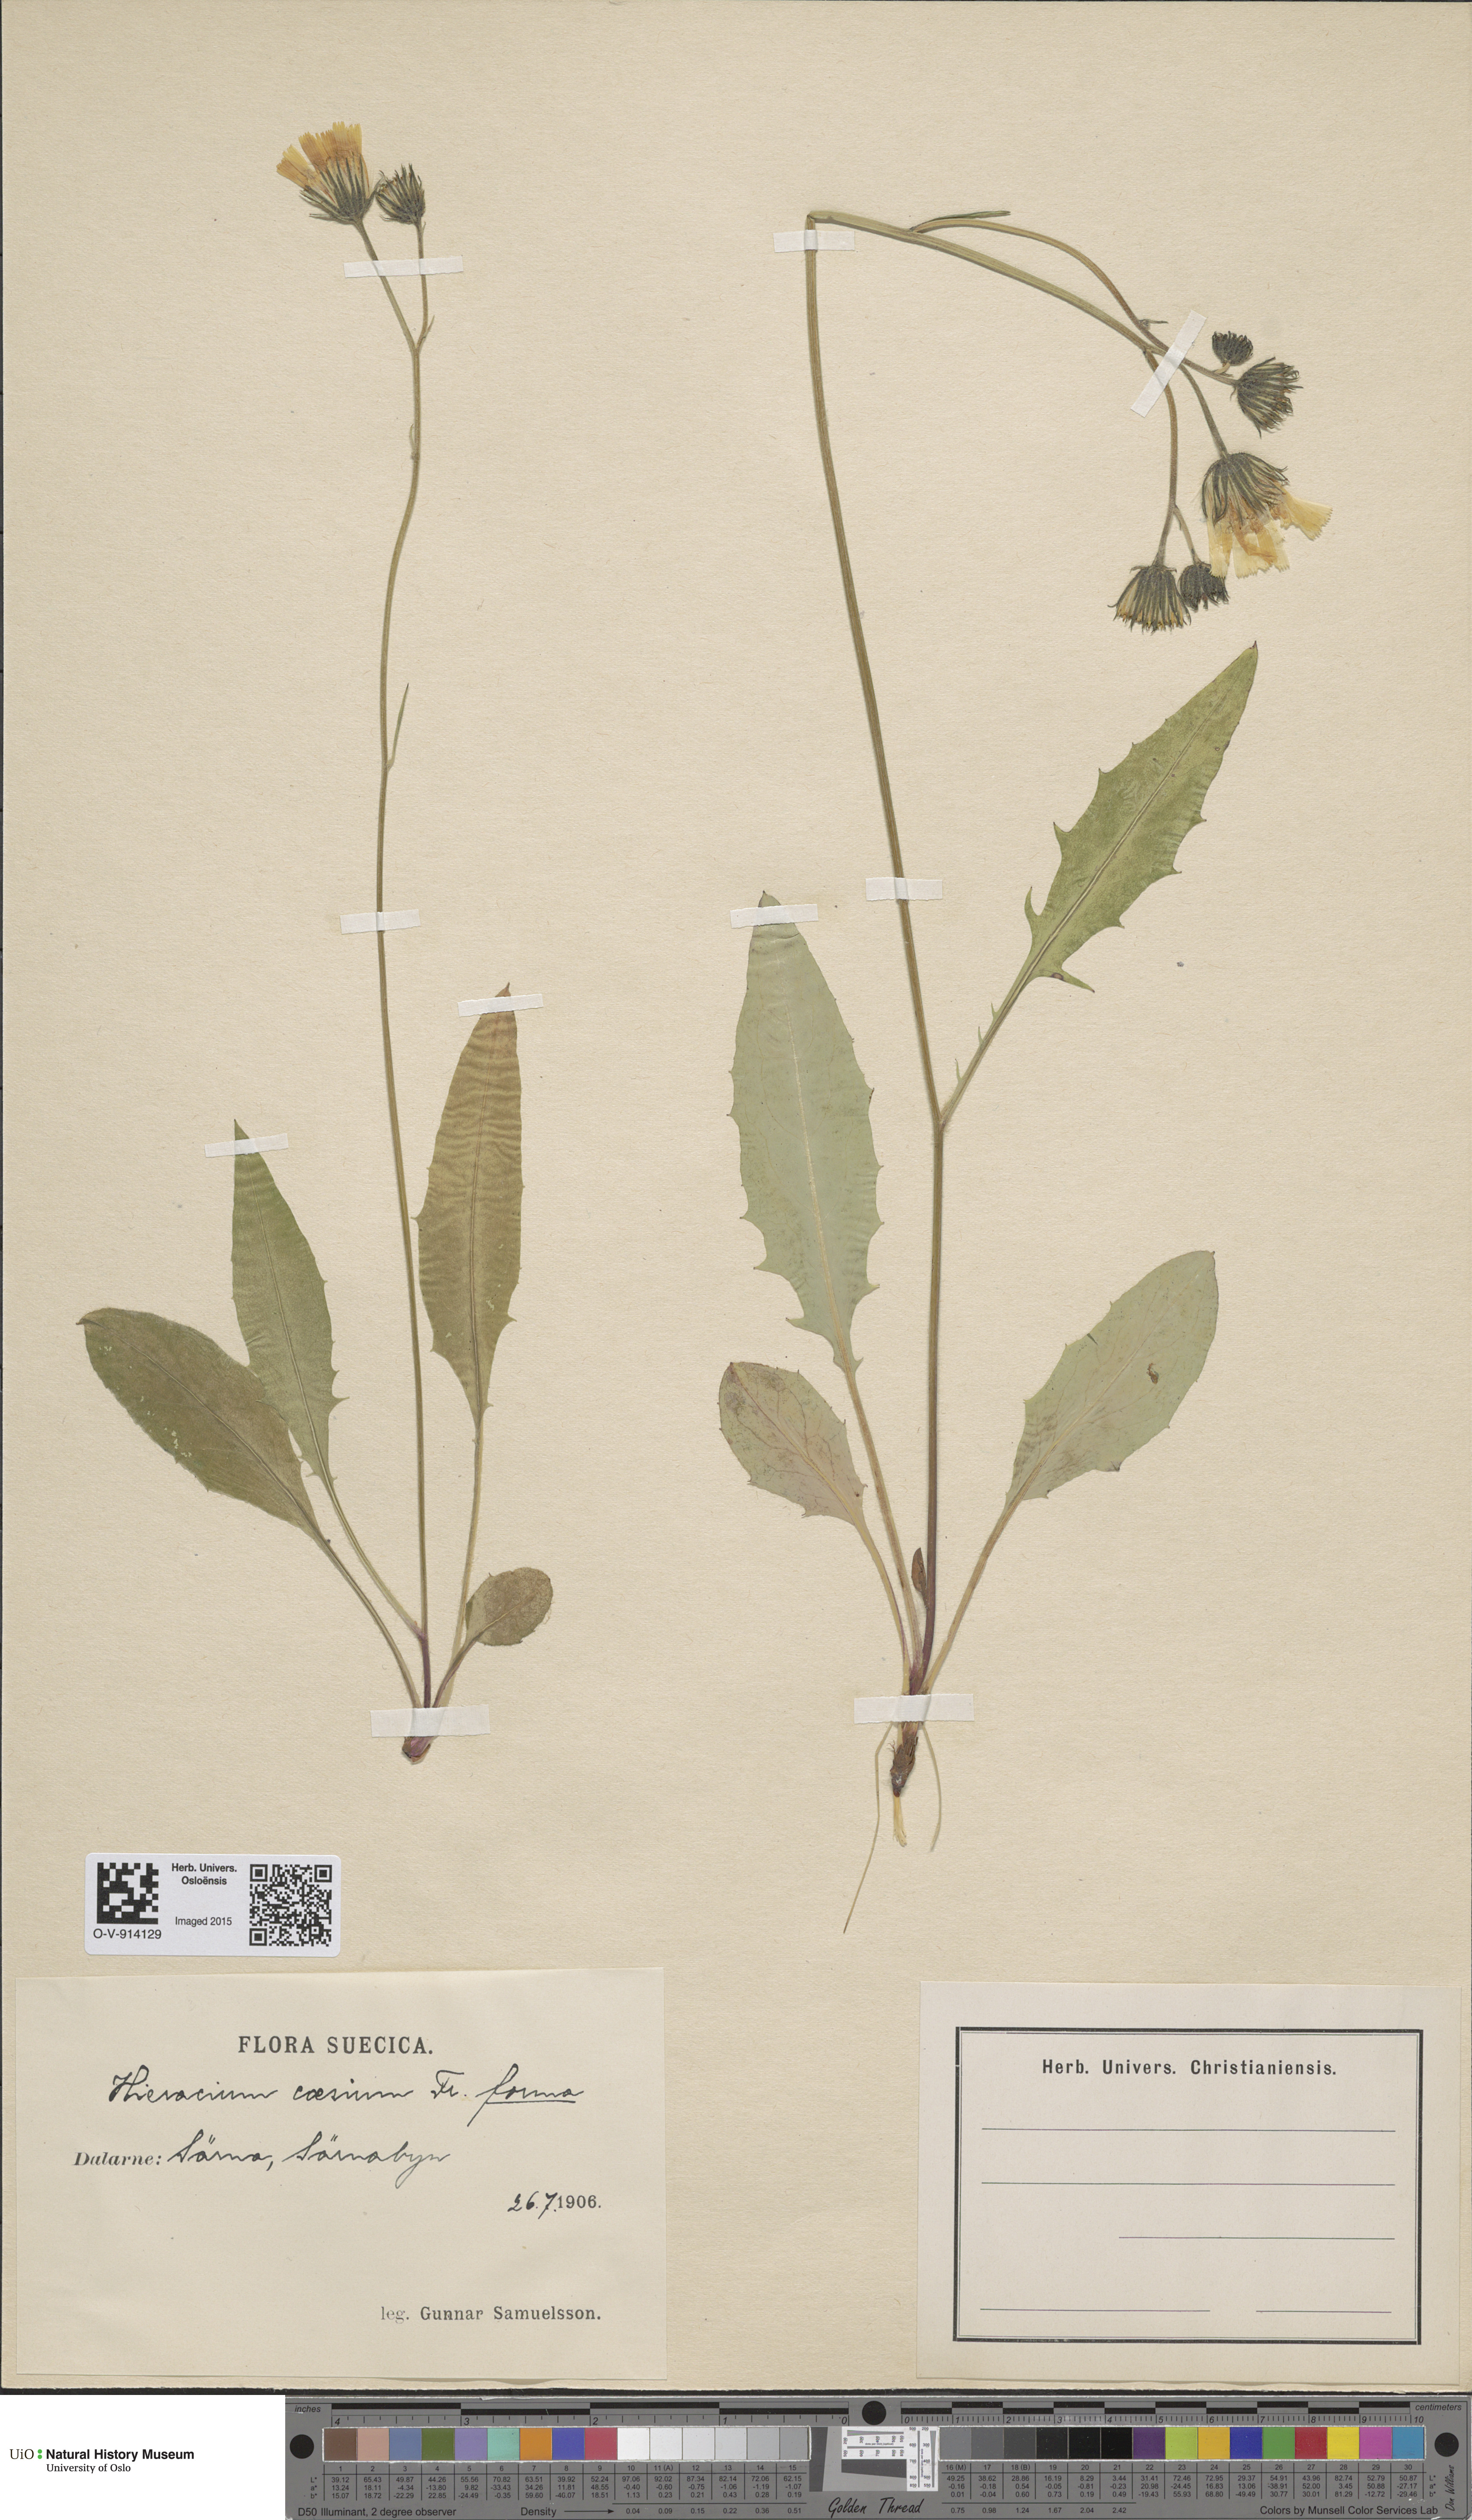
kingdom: Plantae
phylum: Tracheophyta
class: Magnoliopsida
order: Asterales
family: Asteraceae
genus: Hieracium
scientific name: Hieracium caesium
